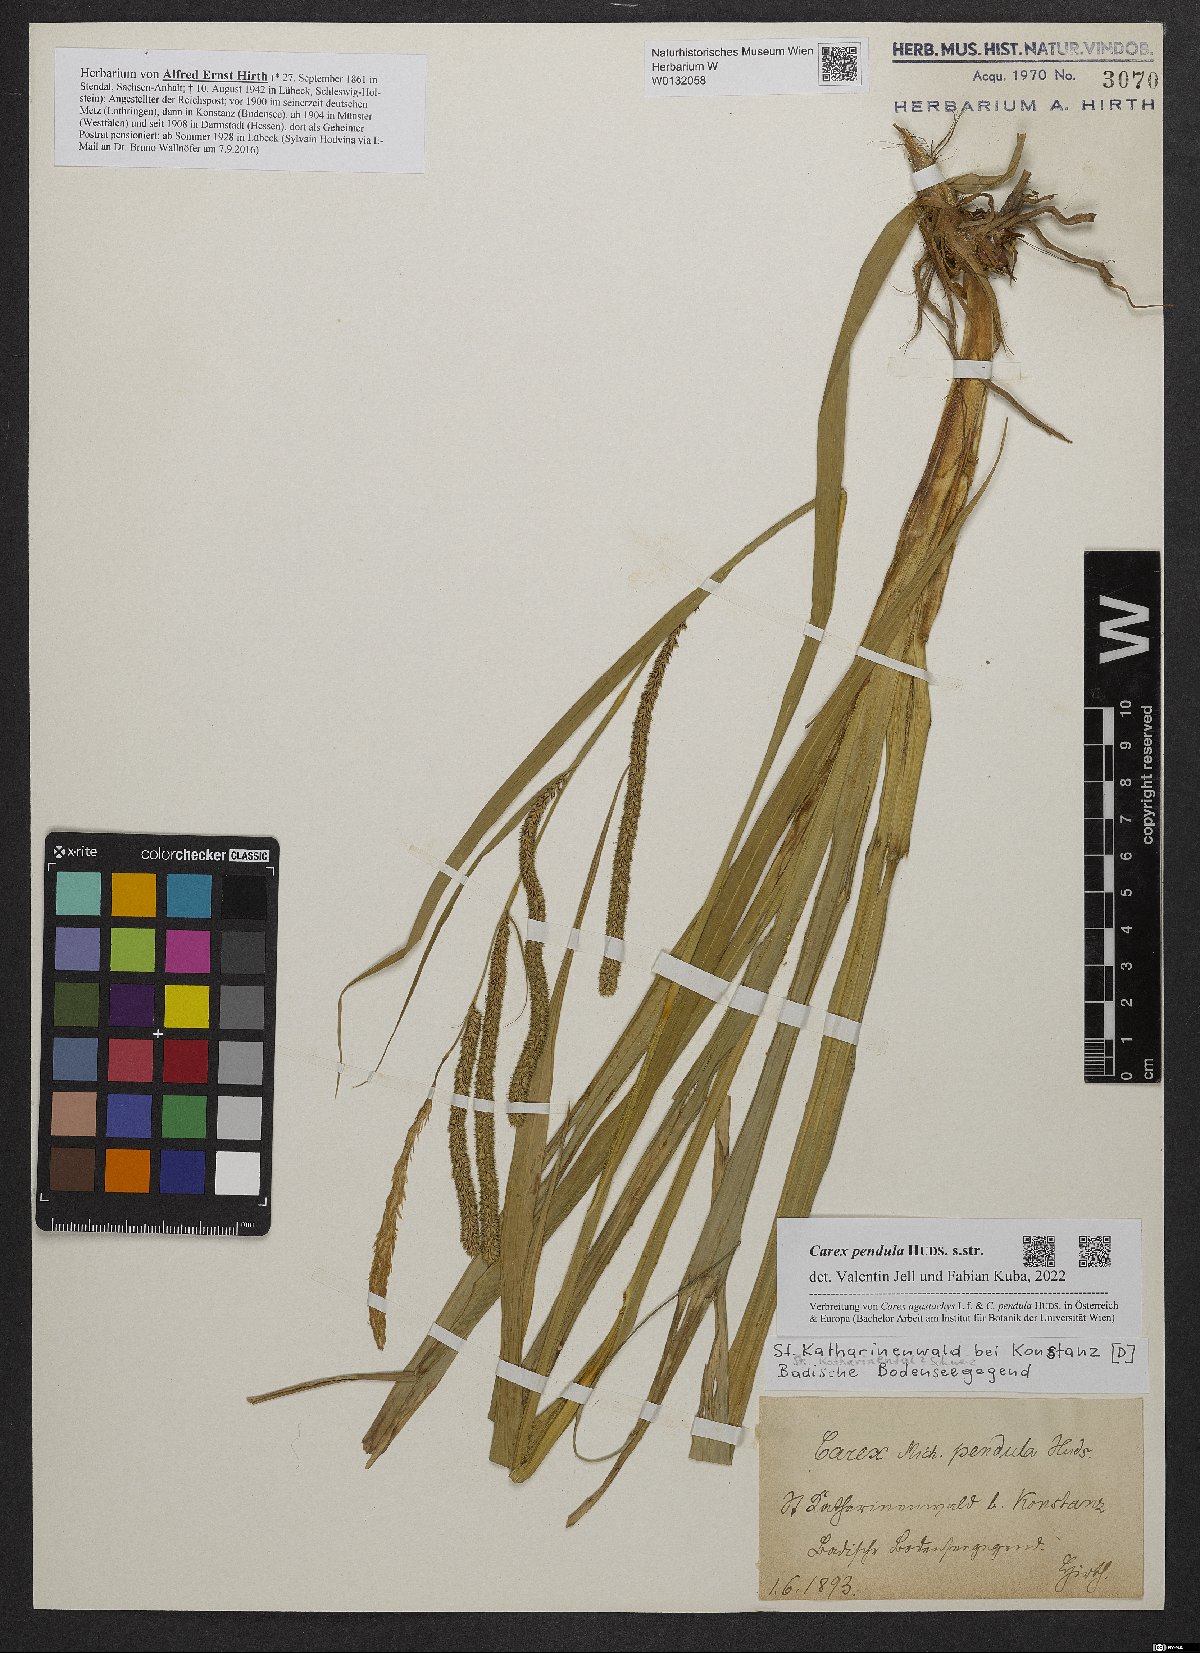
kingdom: Plantae
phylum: Tracheophyta
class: Liliopsida
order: Poales
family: Cyperaceae
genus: Carex
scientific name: Carex pendula
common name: Pendulous sedge
